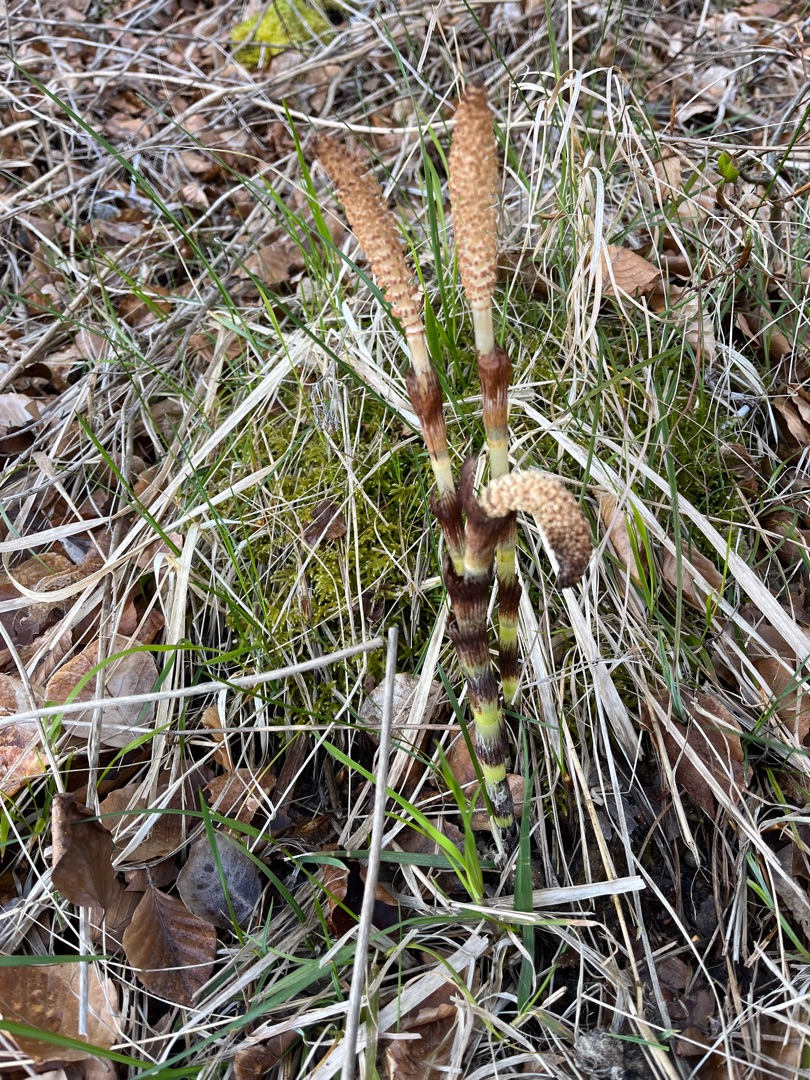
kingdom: Plantae
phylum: Tracheophyta
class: Polypodiopsida
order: Equisetales
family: Equisetaceae
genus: Equisetum
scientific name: Equisetum telmateia
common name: Elfenbens-padderok
